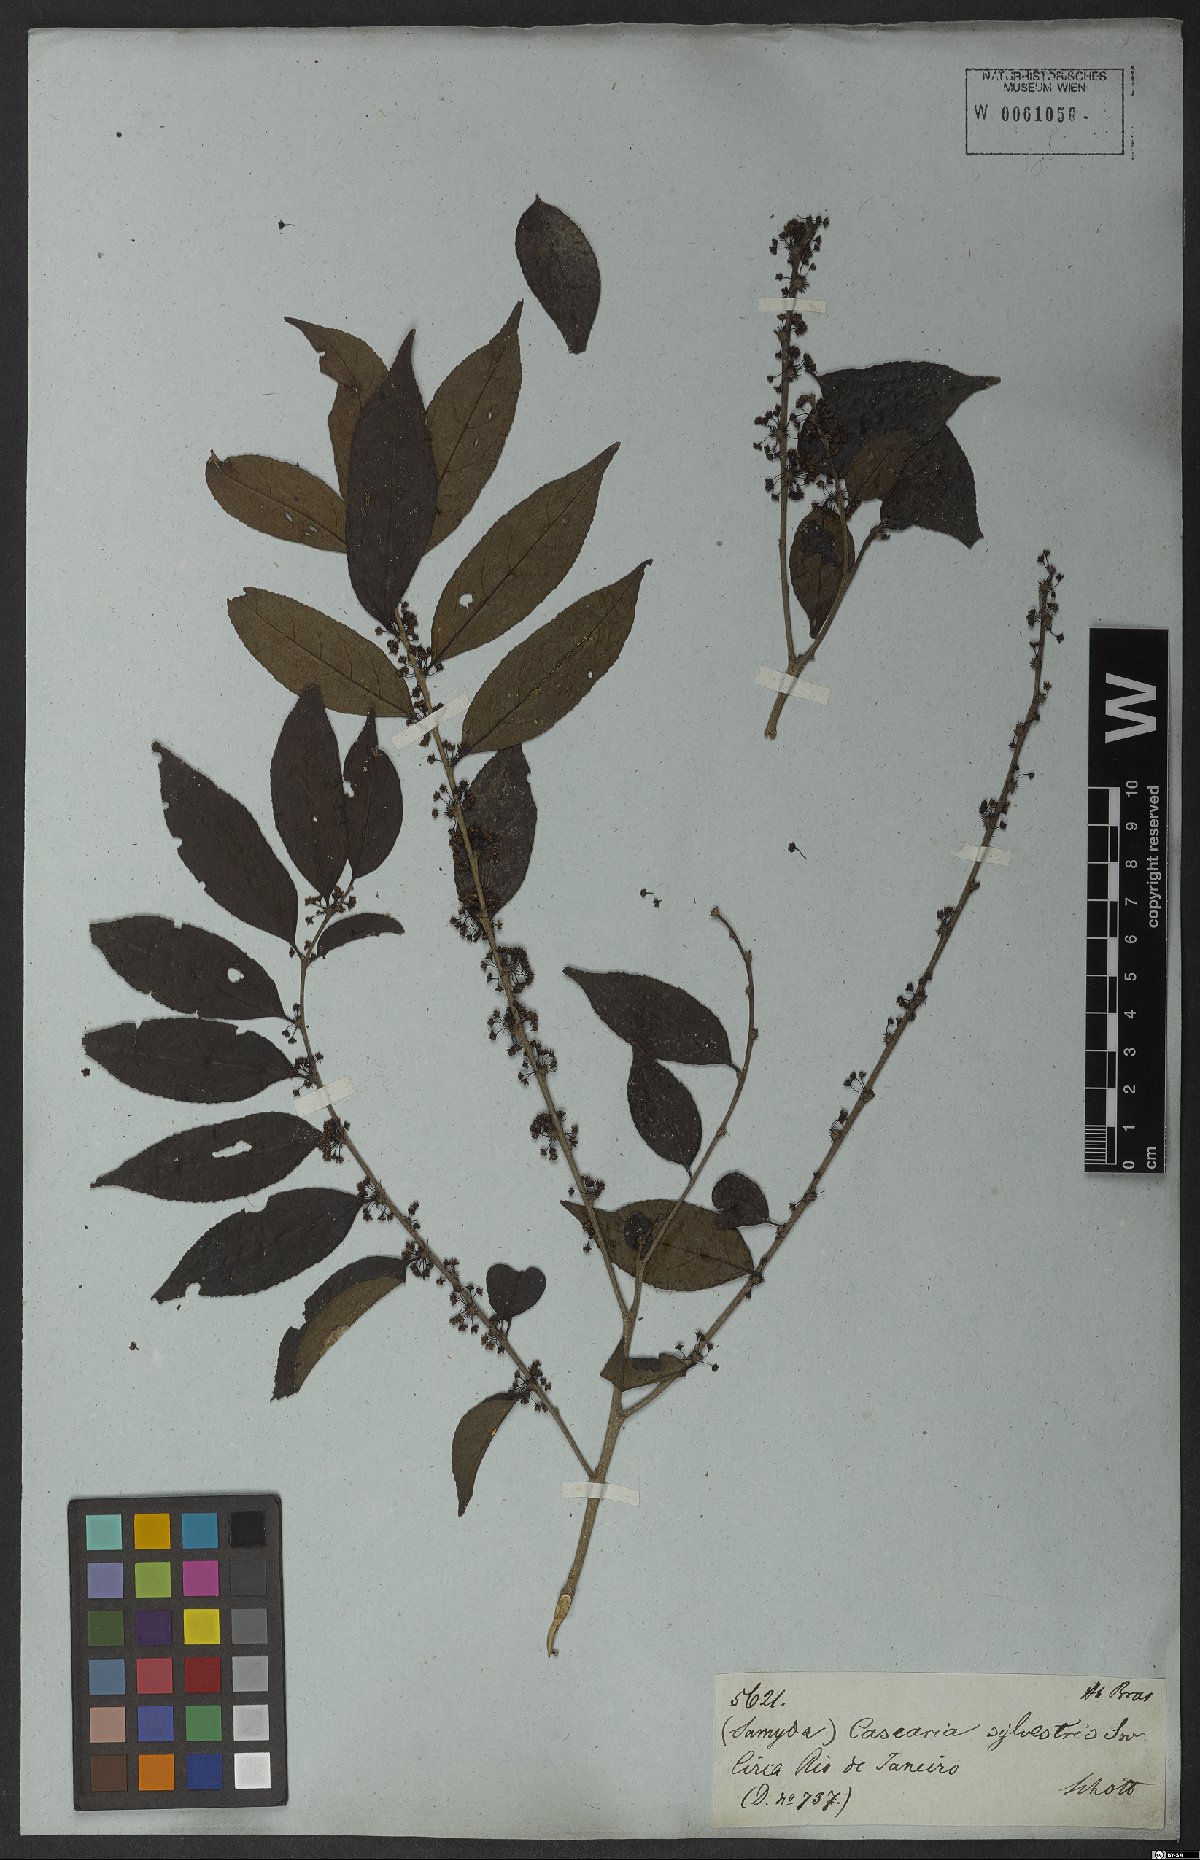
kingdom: Plantae
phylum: Tracheophyta
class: Magnoliopsida
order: Malpighiales
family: Salicaceae
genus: Casearia
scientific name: Casearia sylvestris
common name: Wild sage
